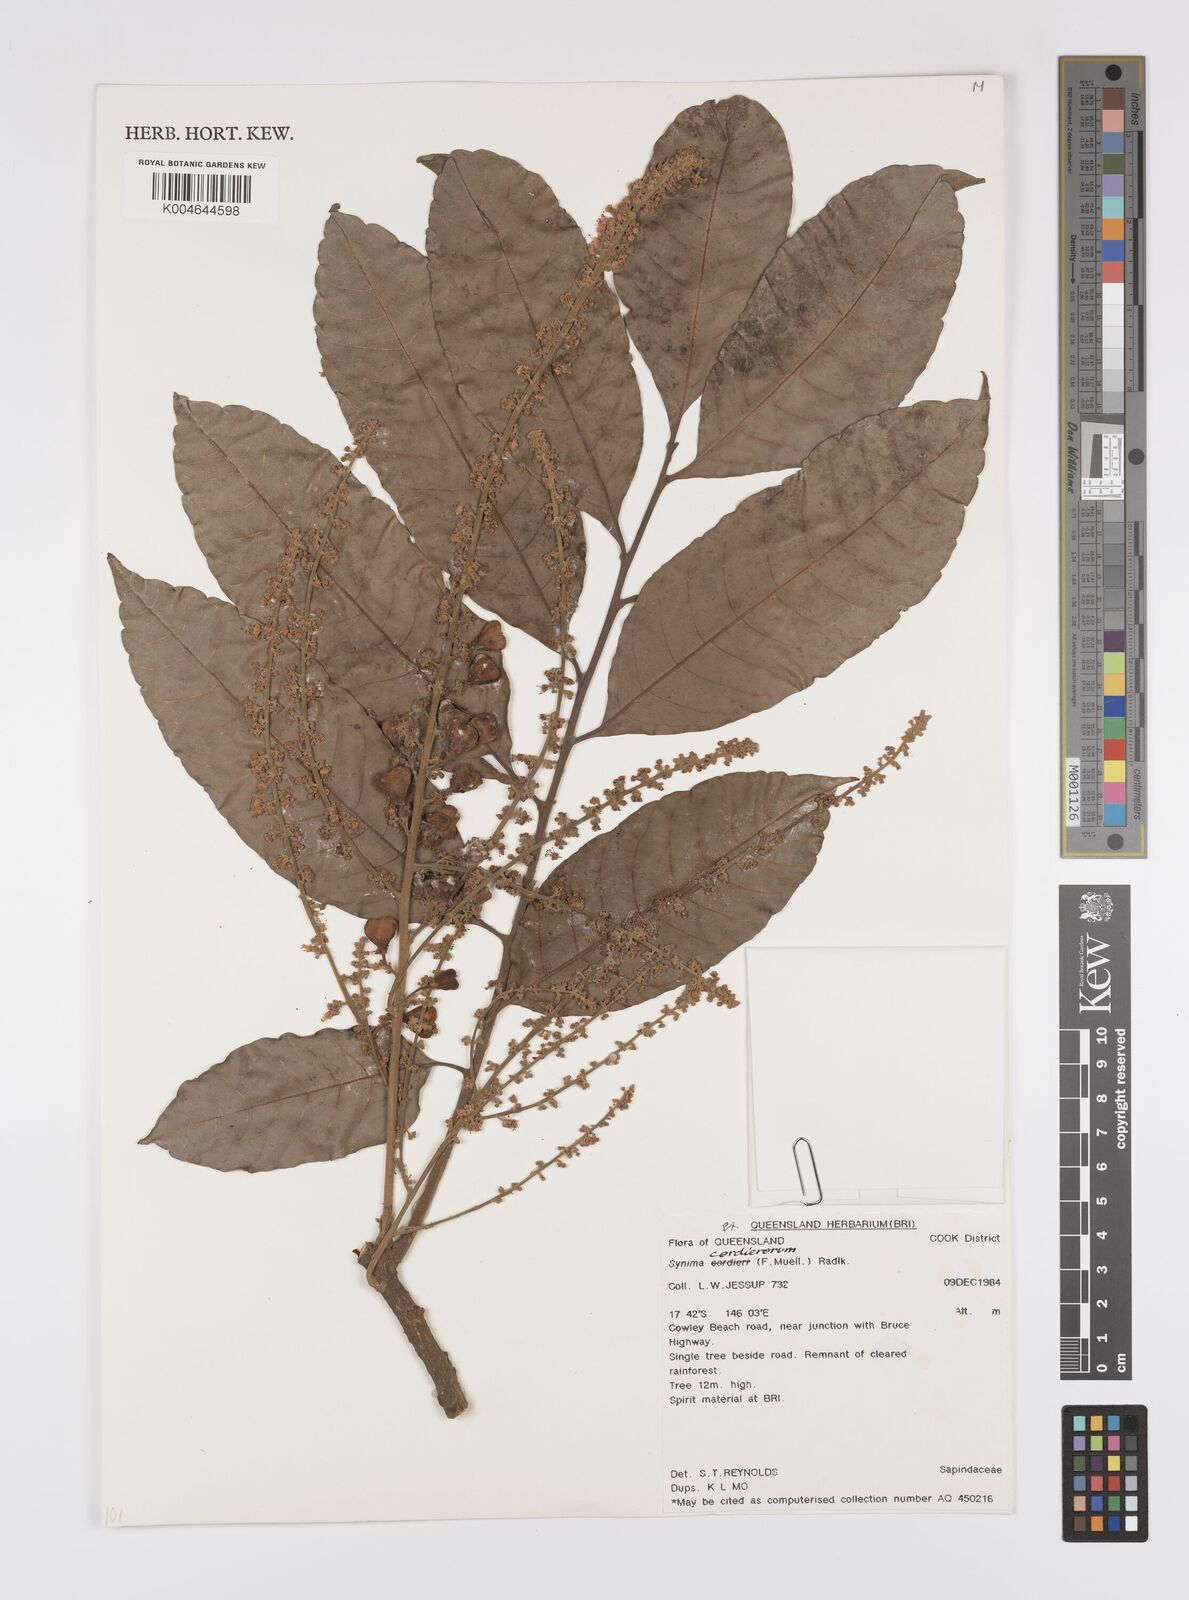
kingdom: Plantae
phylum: Tracheophyta
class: Magnoliopsida
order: Sapindales
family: Sapindaceae
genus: Synima
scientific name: Synima
